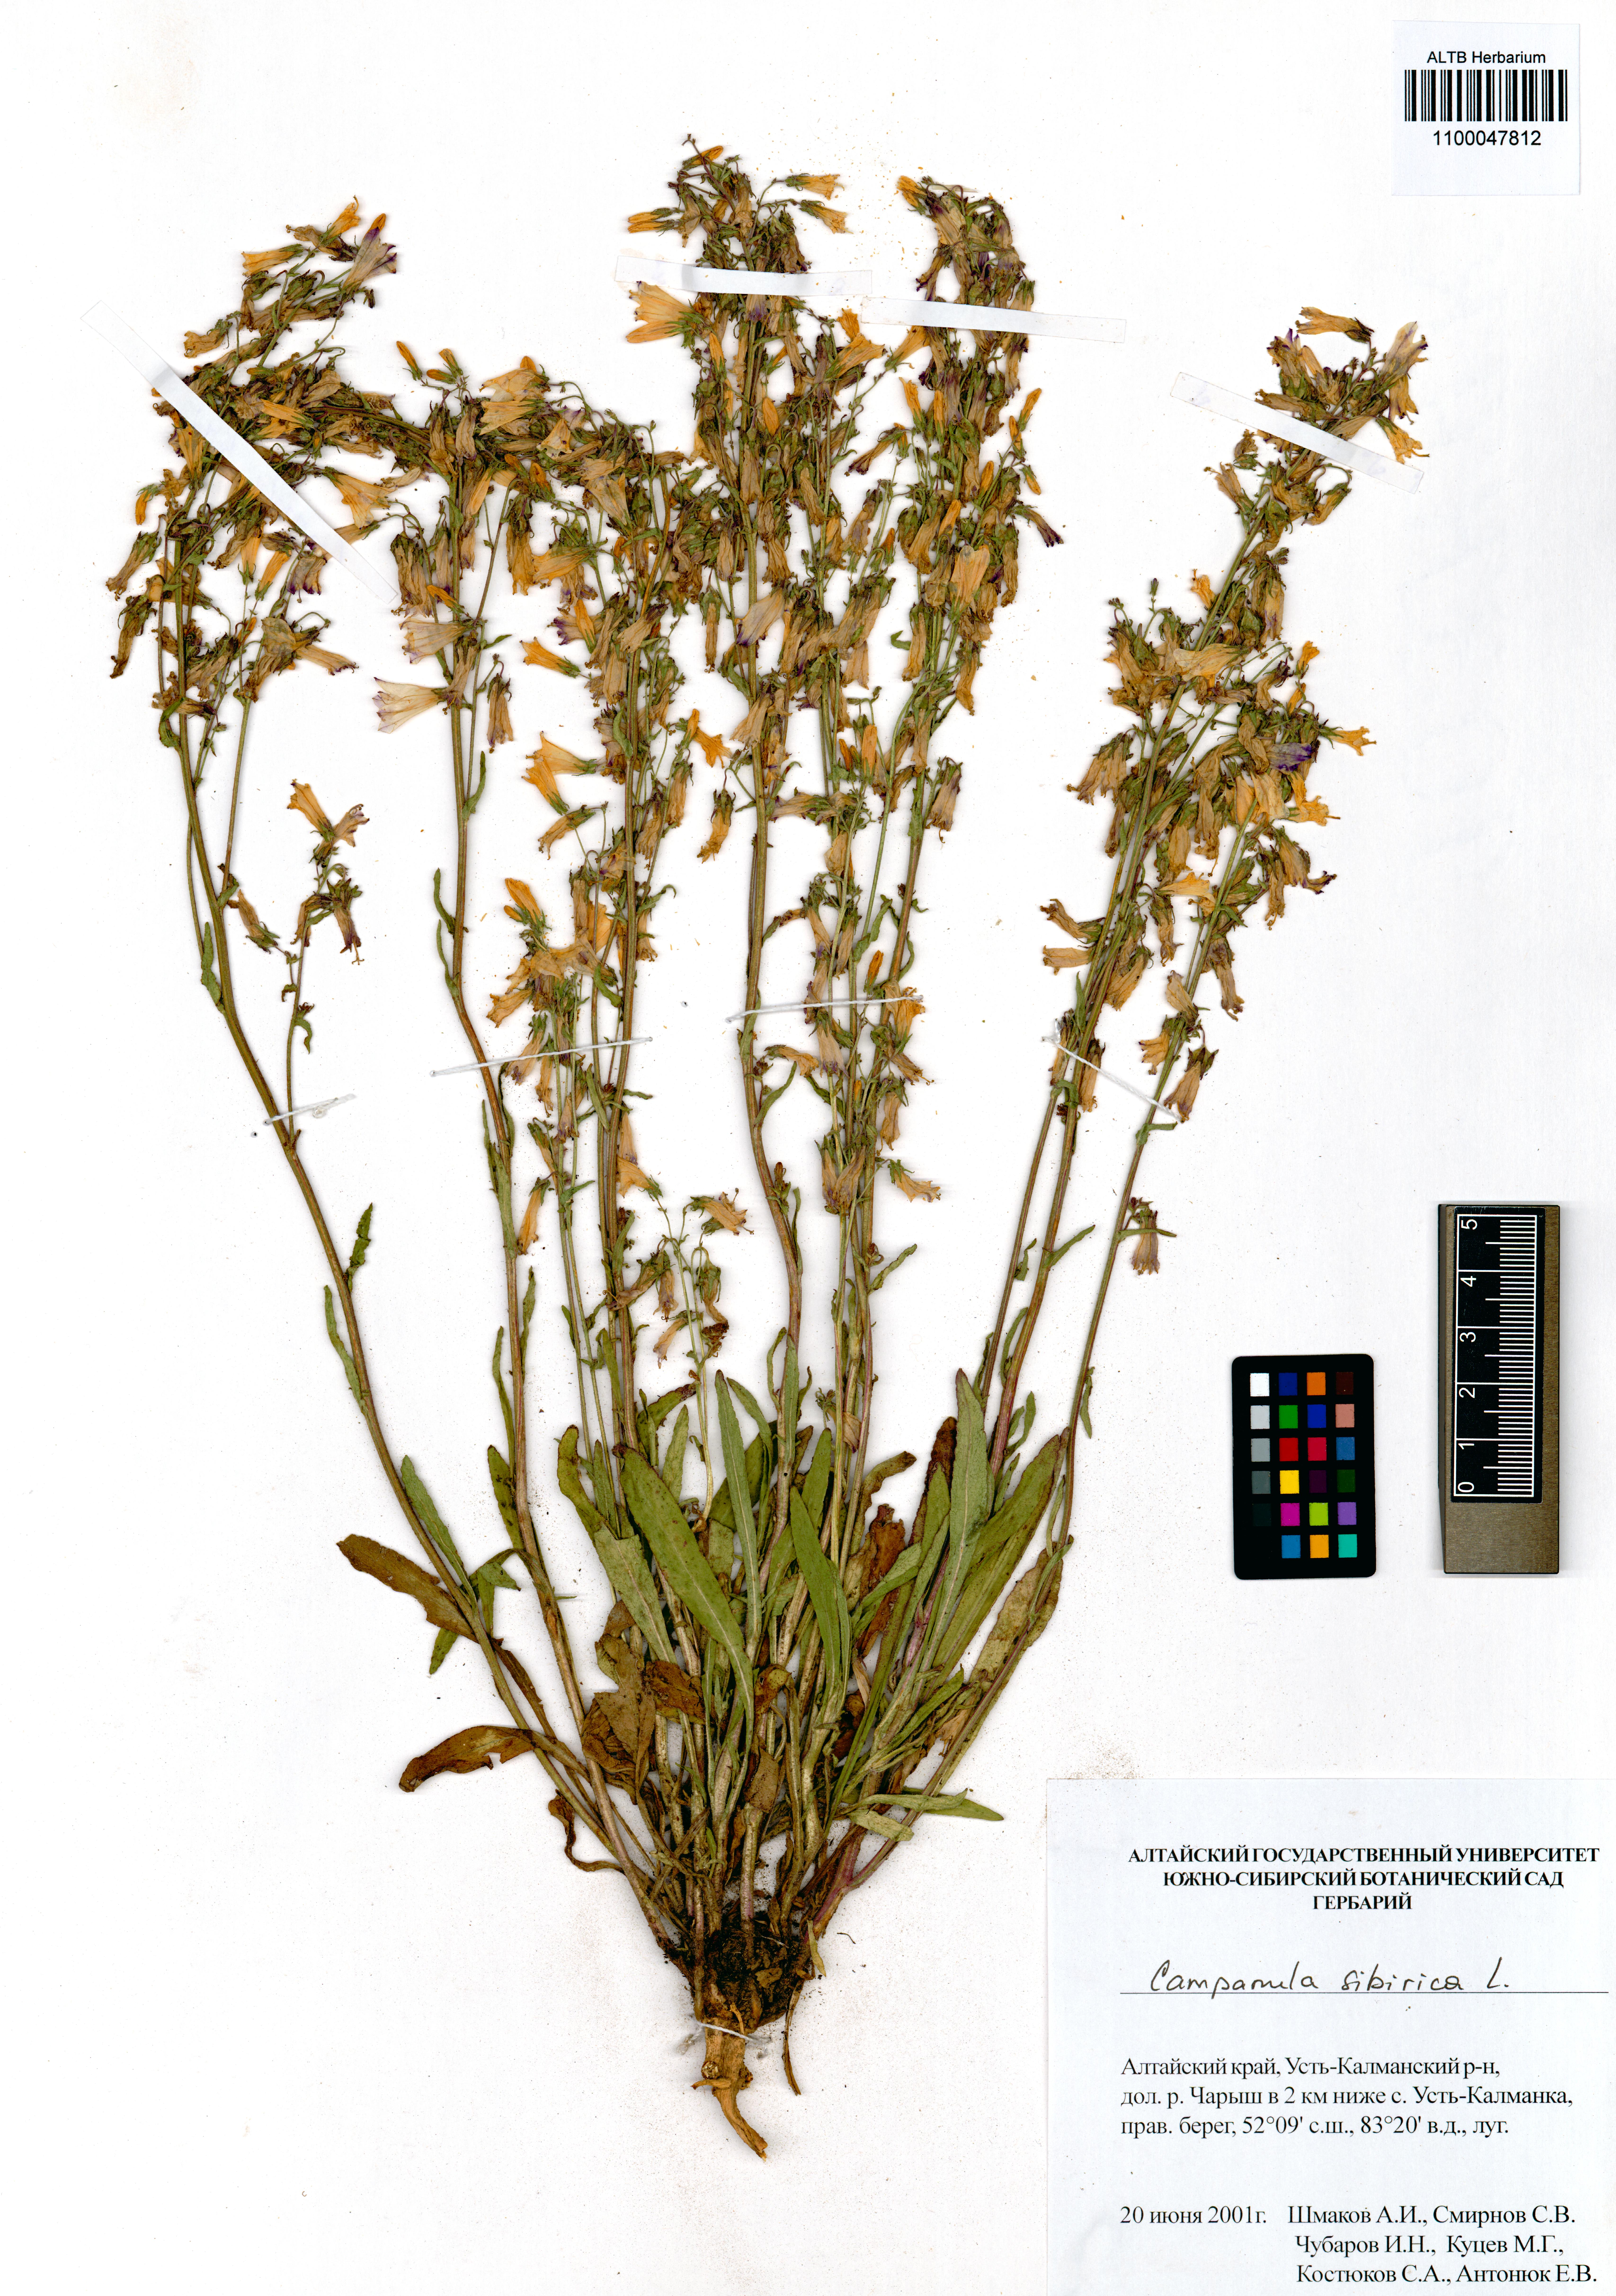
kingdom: Plantae
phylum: Tracheophyta
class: Magnoliopsida
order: Asterales
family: Campanulaceae
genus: Campanula
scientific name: Campanula sibirica
